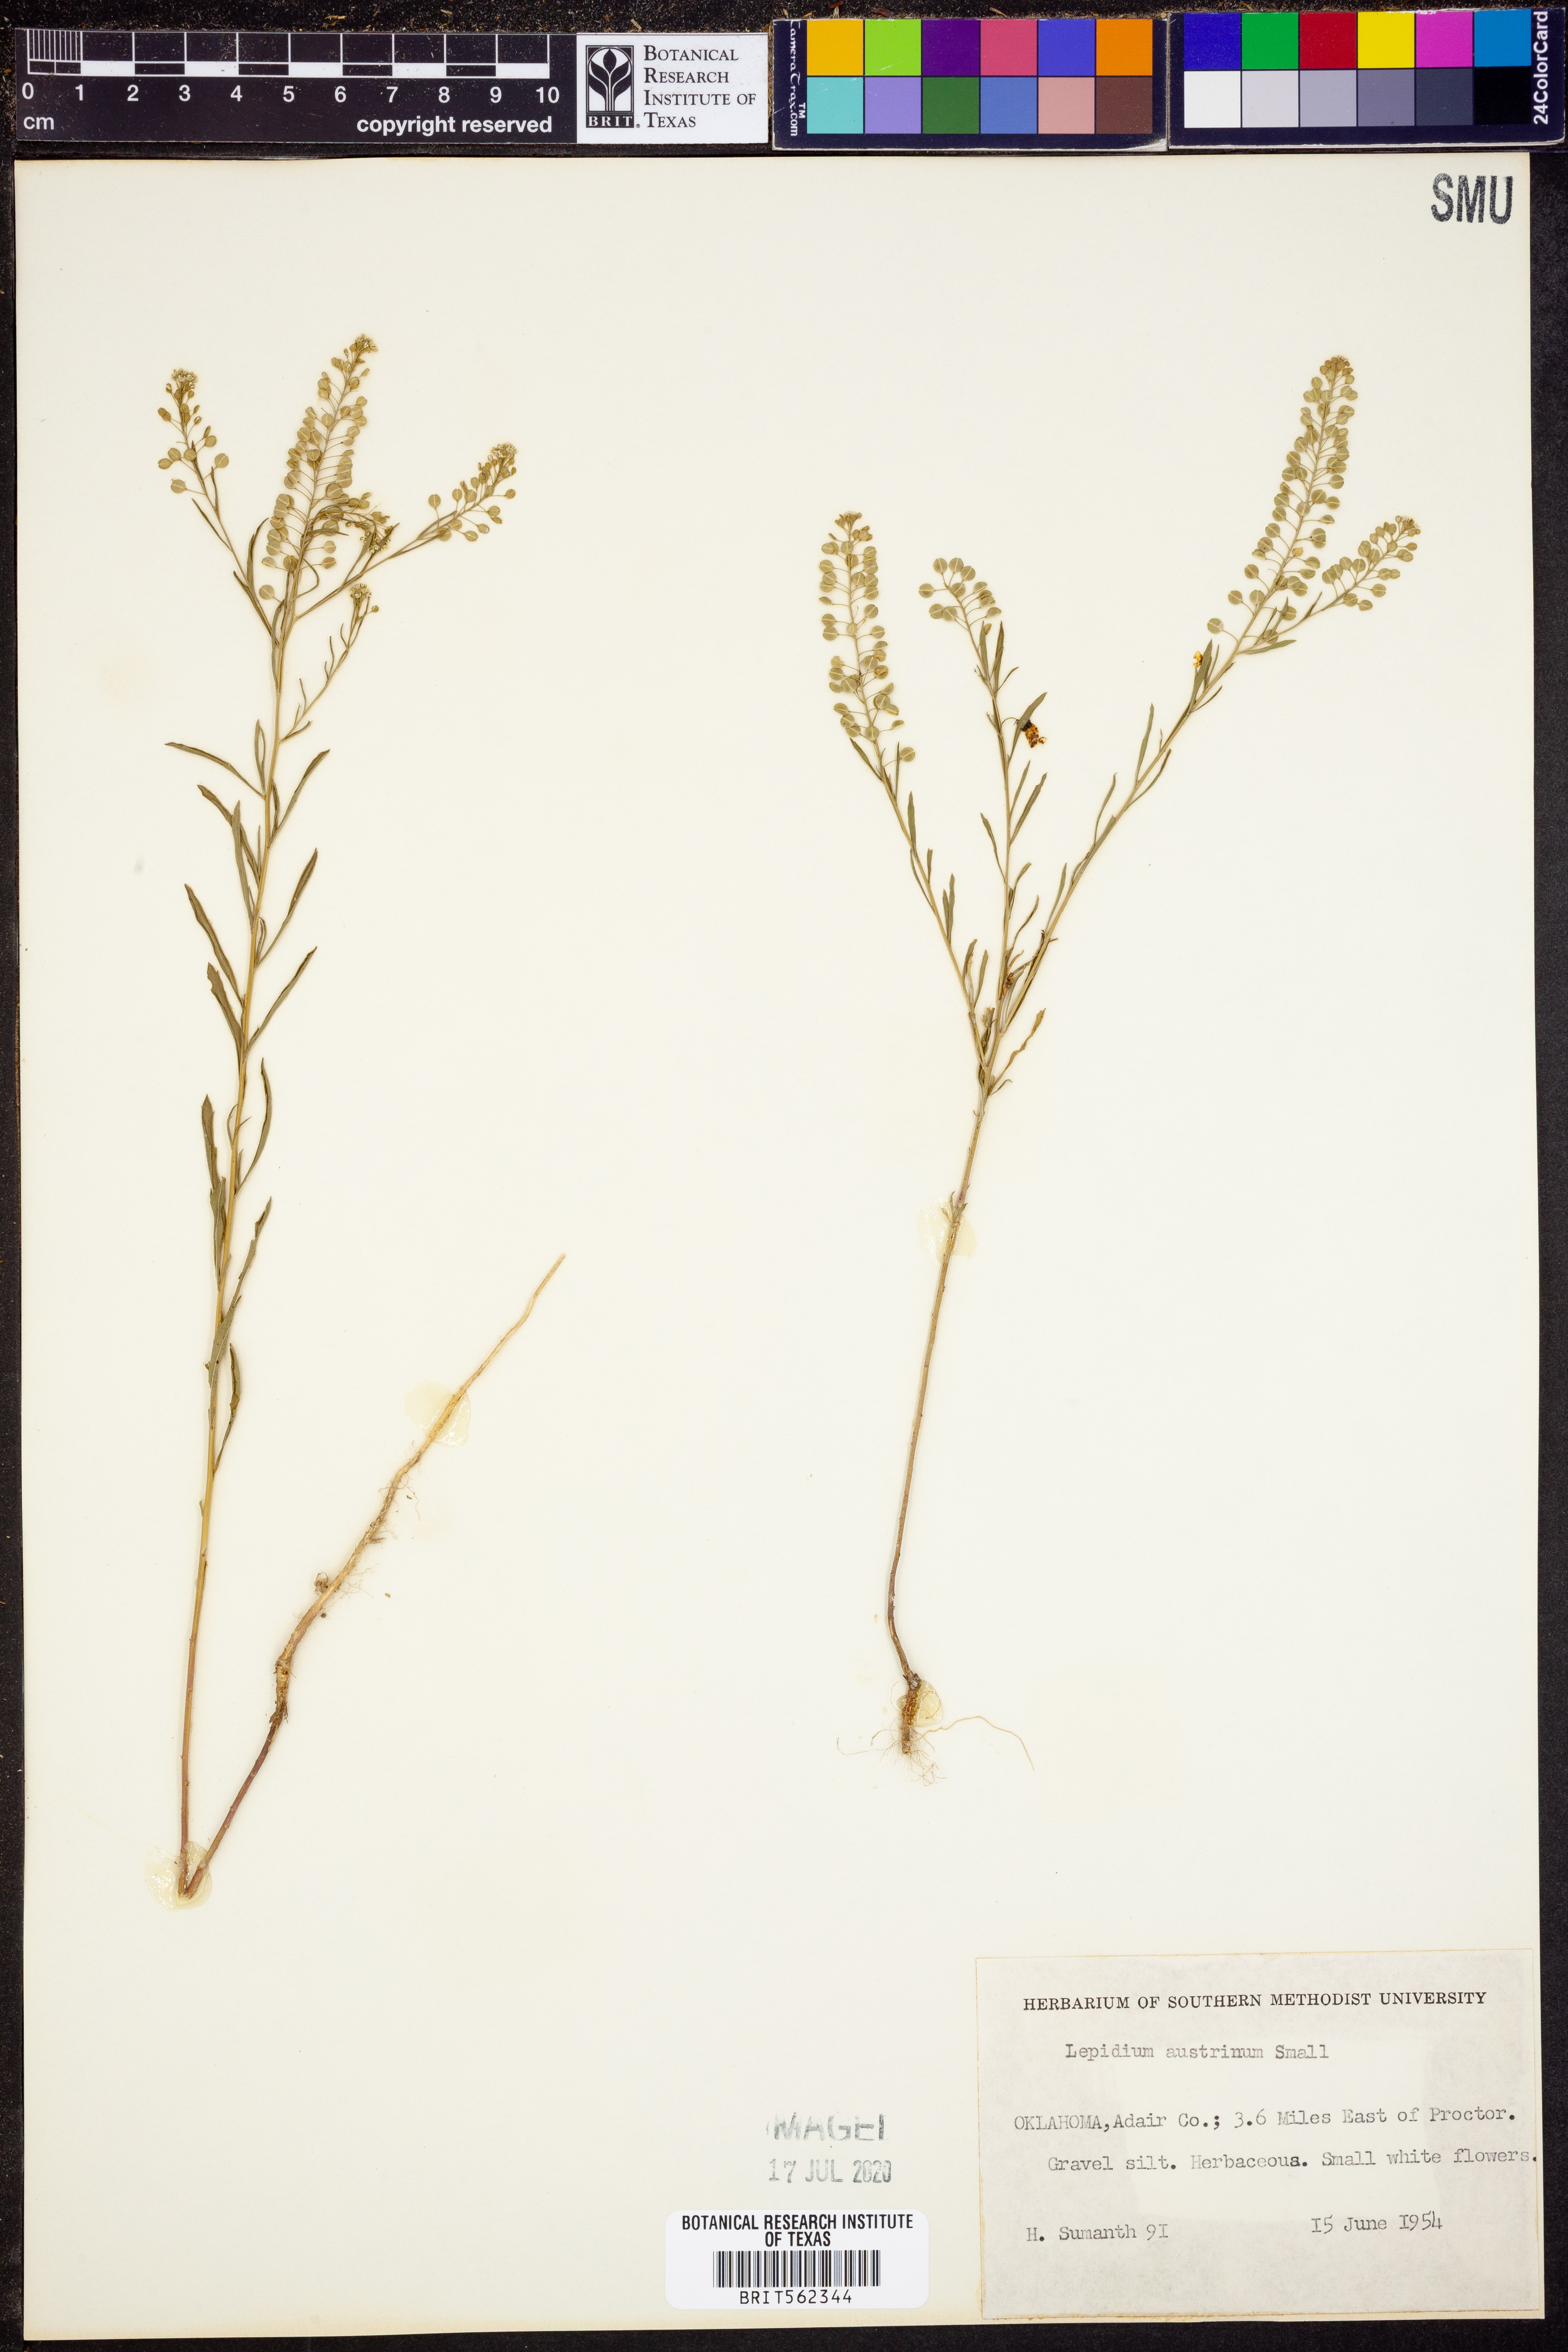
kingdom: Plantae
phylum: Tracheophyta
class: Magnoliopsida
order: Brassicales
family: Brassicaceae
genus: Lepidium
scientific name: Lepidium austrinum
